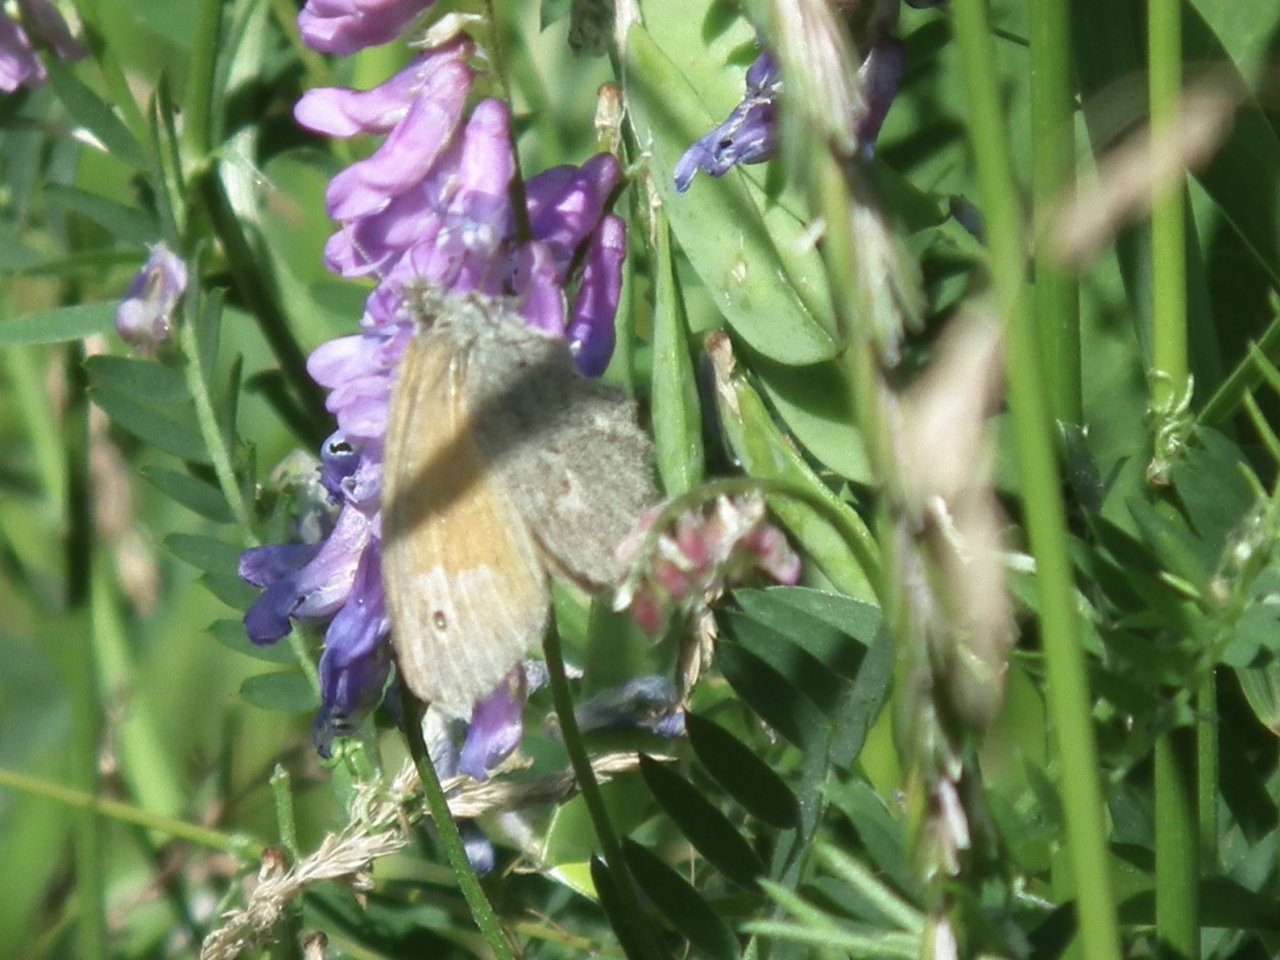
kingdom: Animalia
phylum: Arthropoda
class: Insecta
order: Lepidoptera
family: Nymphalidae
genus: Coenonympha
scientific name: Coenonympha tullia
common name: Large Heath
